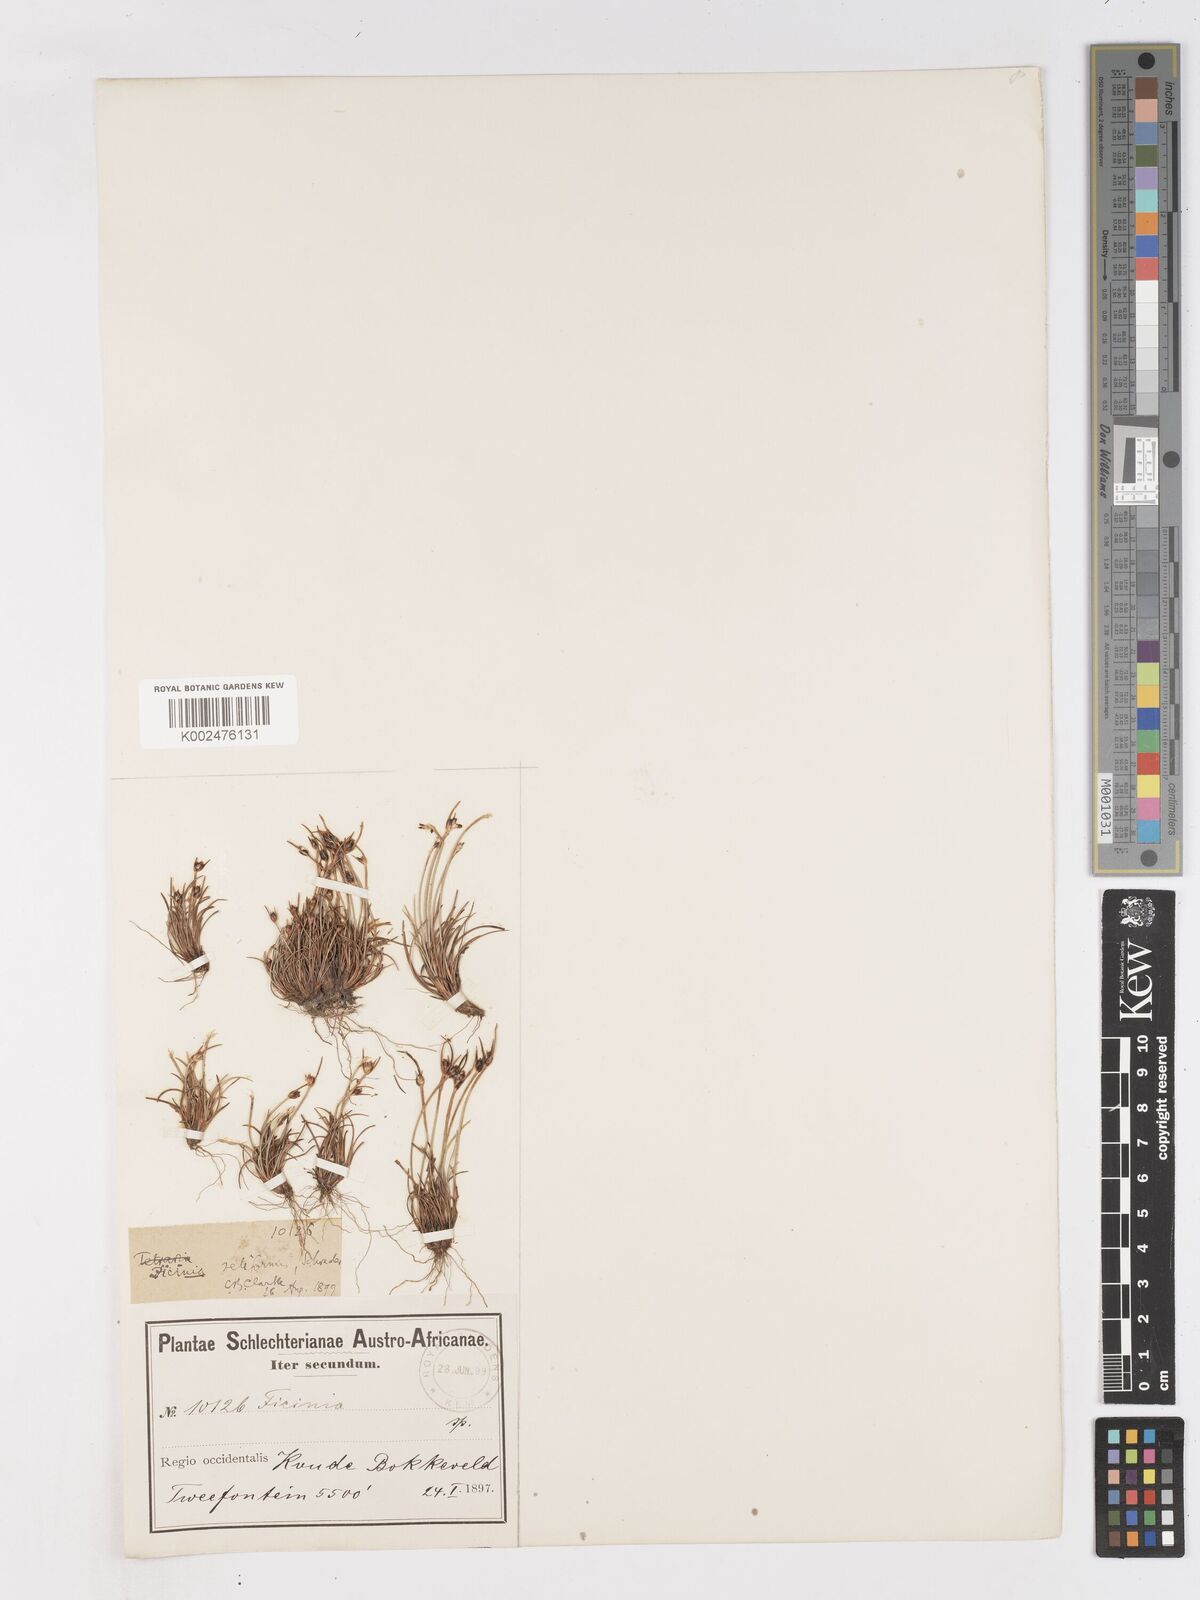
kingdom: Plantae
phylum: Tracheophyta
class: Liliopsida
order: Poales
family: Cyperaceae
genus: Ficinia
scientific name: Ficinia indica
